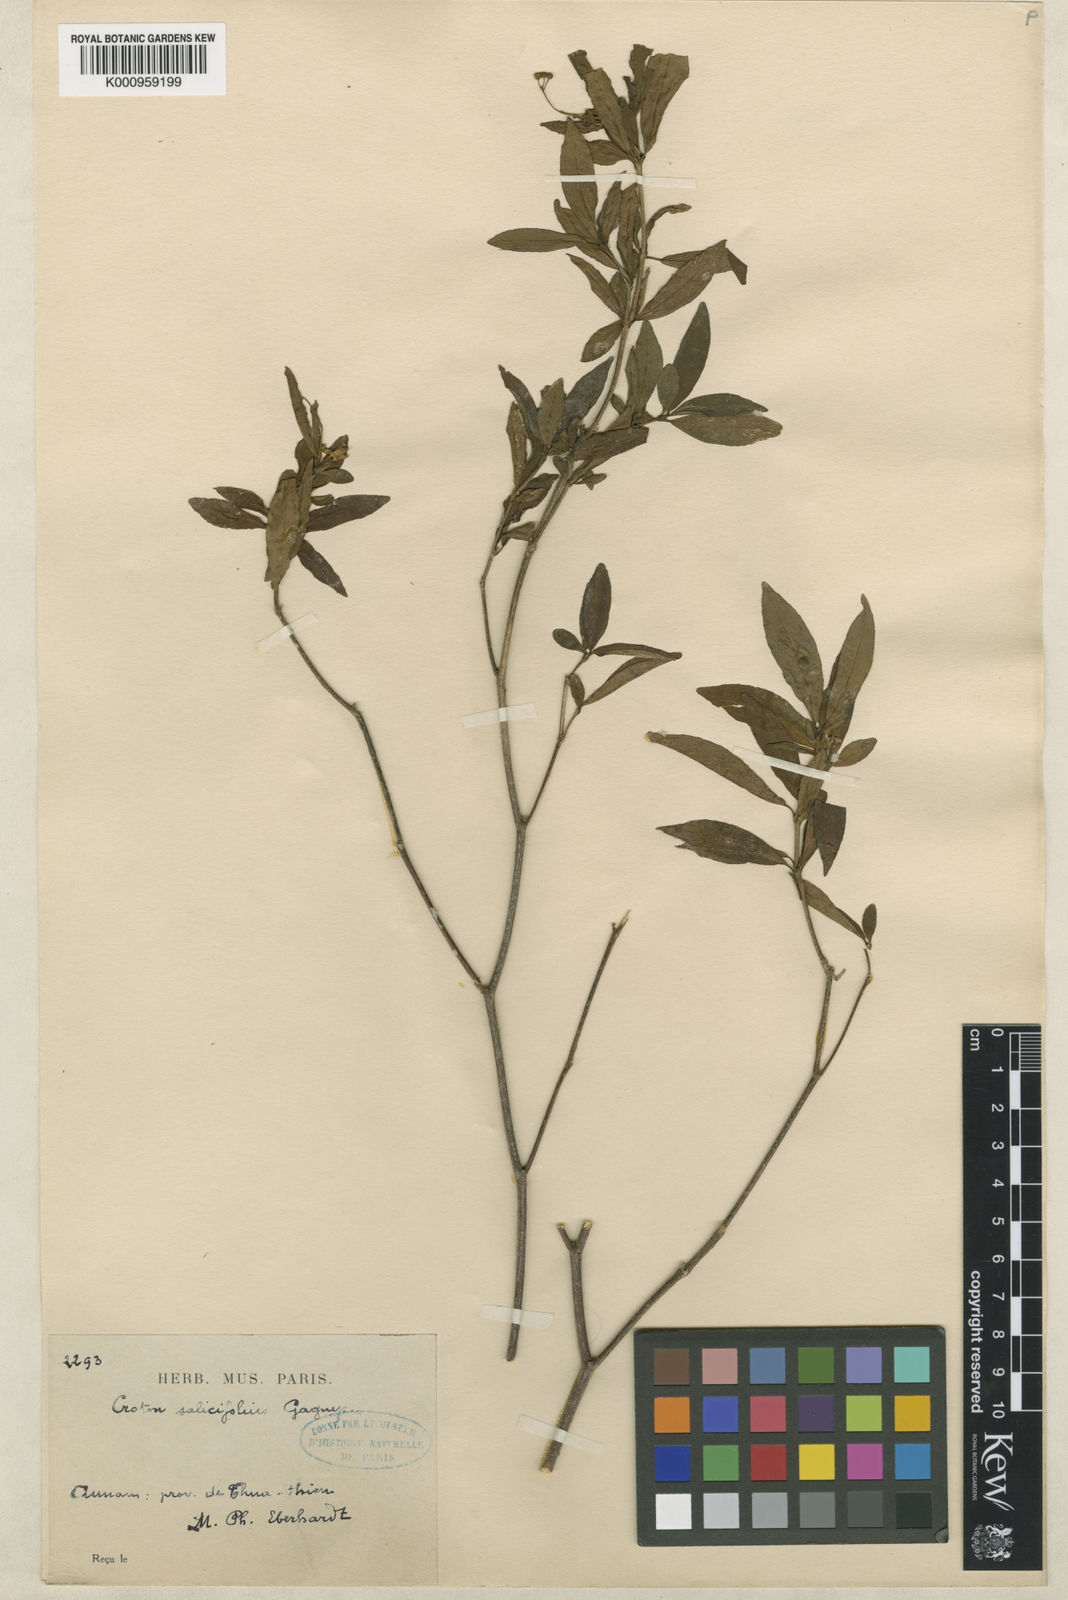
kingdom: Plantae
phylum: Tracheophyta
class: Magnoliopsida
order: Malpighiales
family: Euphorbiaceae
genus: Croton
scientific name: Croton iteophyllus
